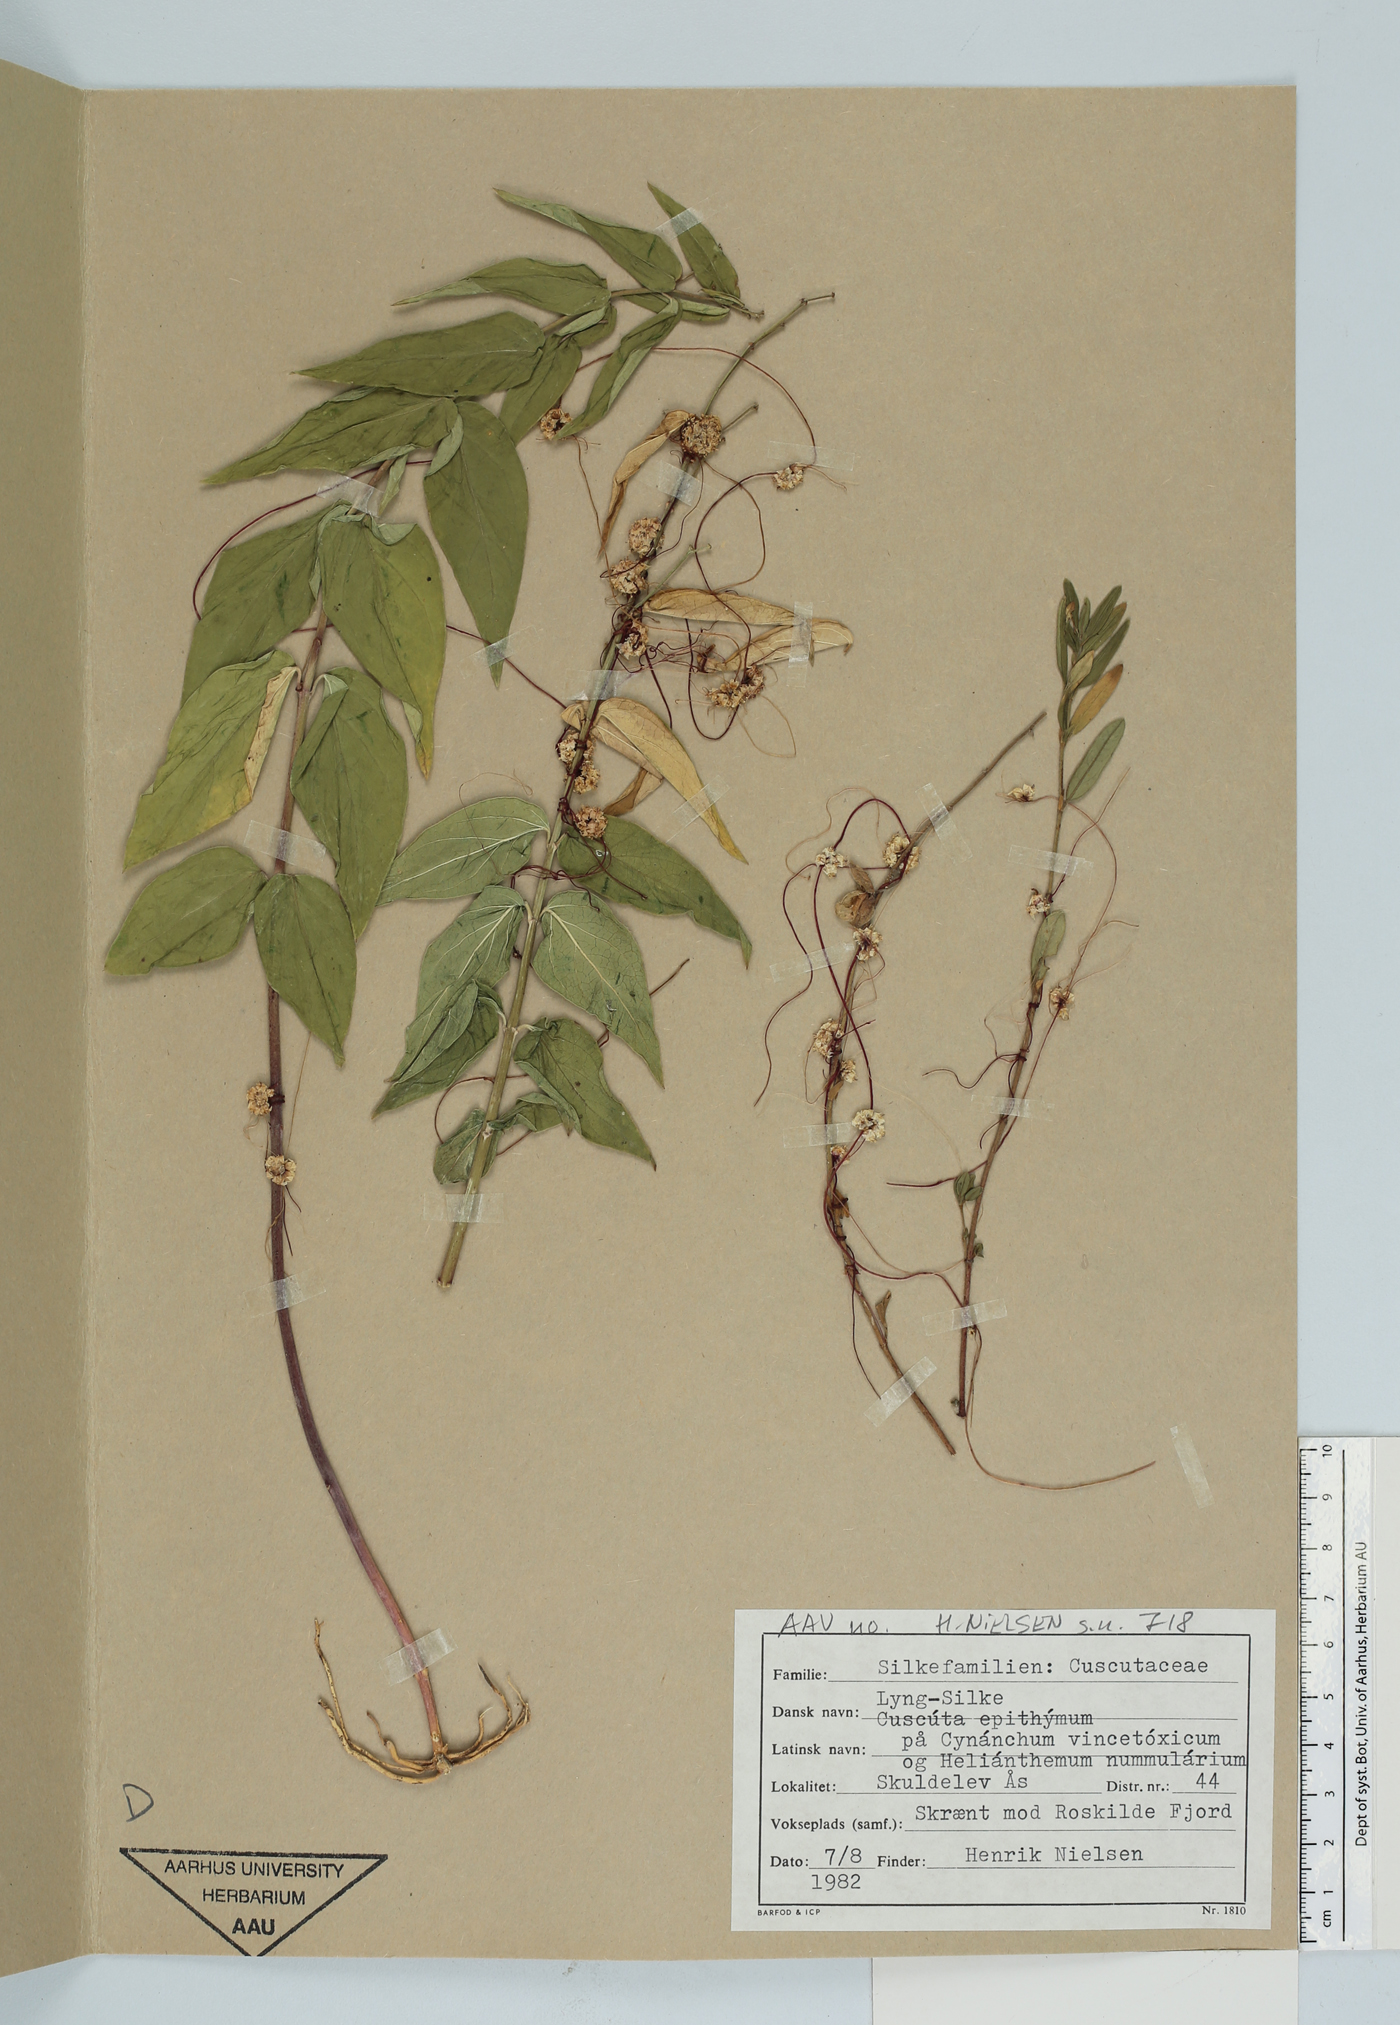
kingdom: Plantae
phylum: Tracheophyta
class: Magnoliopsida
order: Solanales
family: Convolvulaceae
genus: Cuscuta
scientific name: Cuscuta epithymum
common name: Clover dodder
